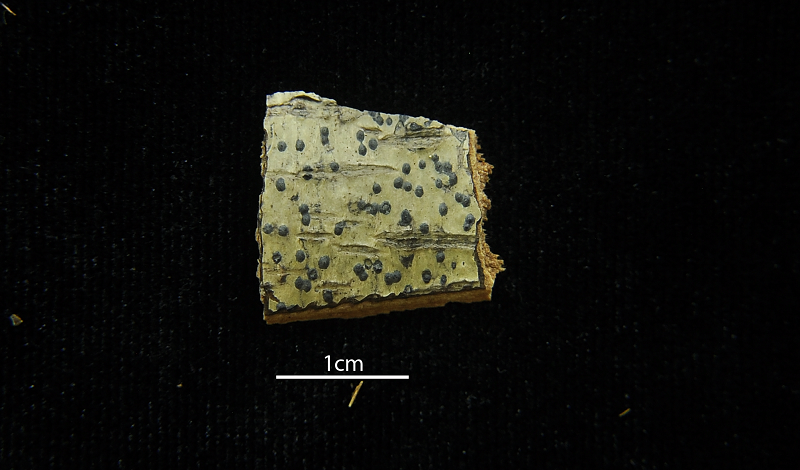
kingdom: Fungi
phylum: Ascomycota
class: Eurotiomycetes
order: Pyrenulales
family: Pyrenulaceae
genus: Pyrenula
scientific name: Pyrenula mamillana
